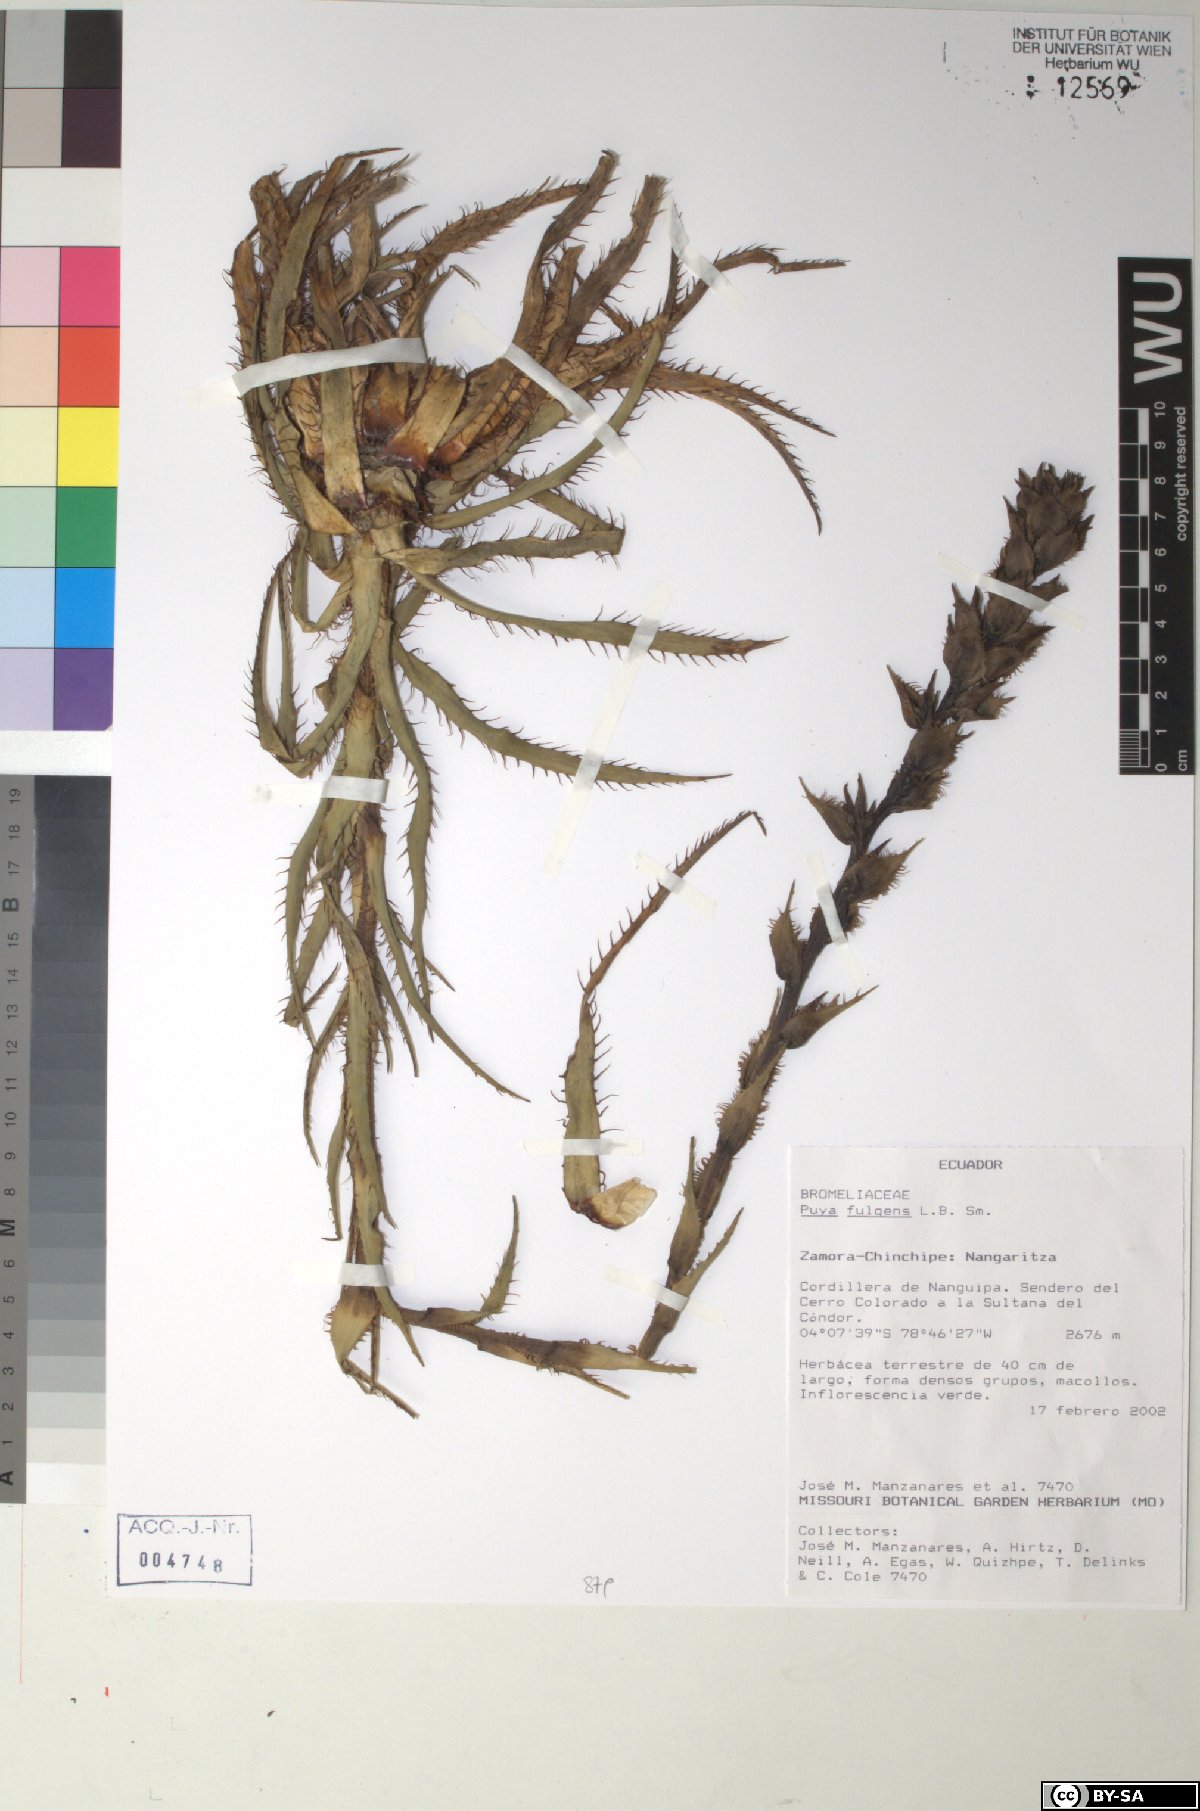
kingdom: Plantae
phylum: Tracheophyta
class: Liliopsida
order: Poales
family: Bromeliaceae
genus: Puya
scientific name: Puya fulgens
